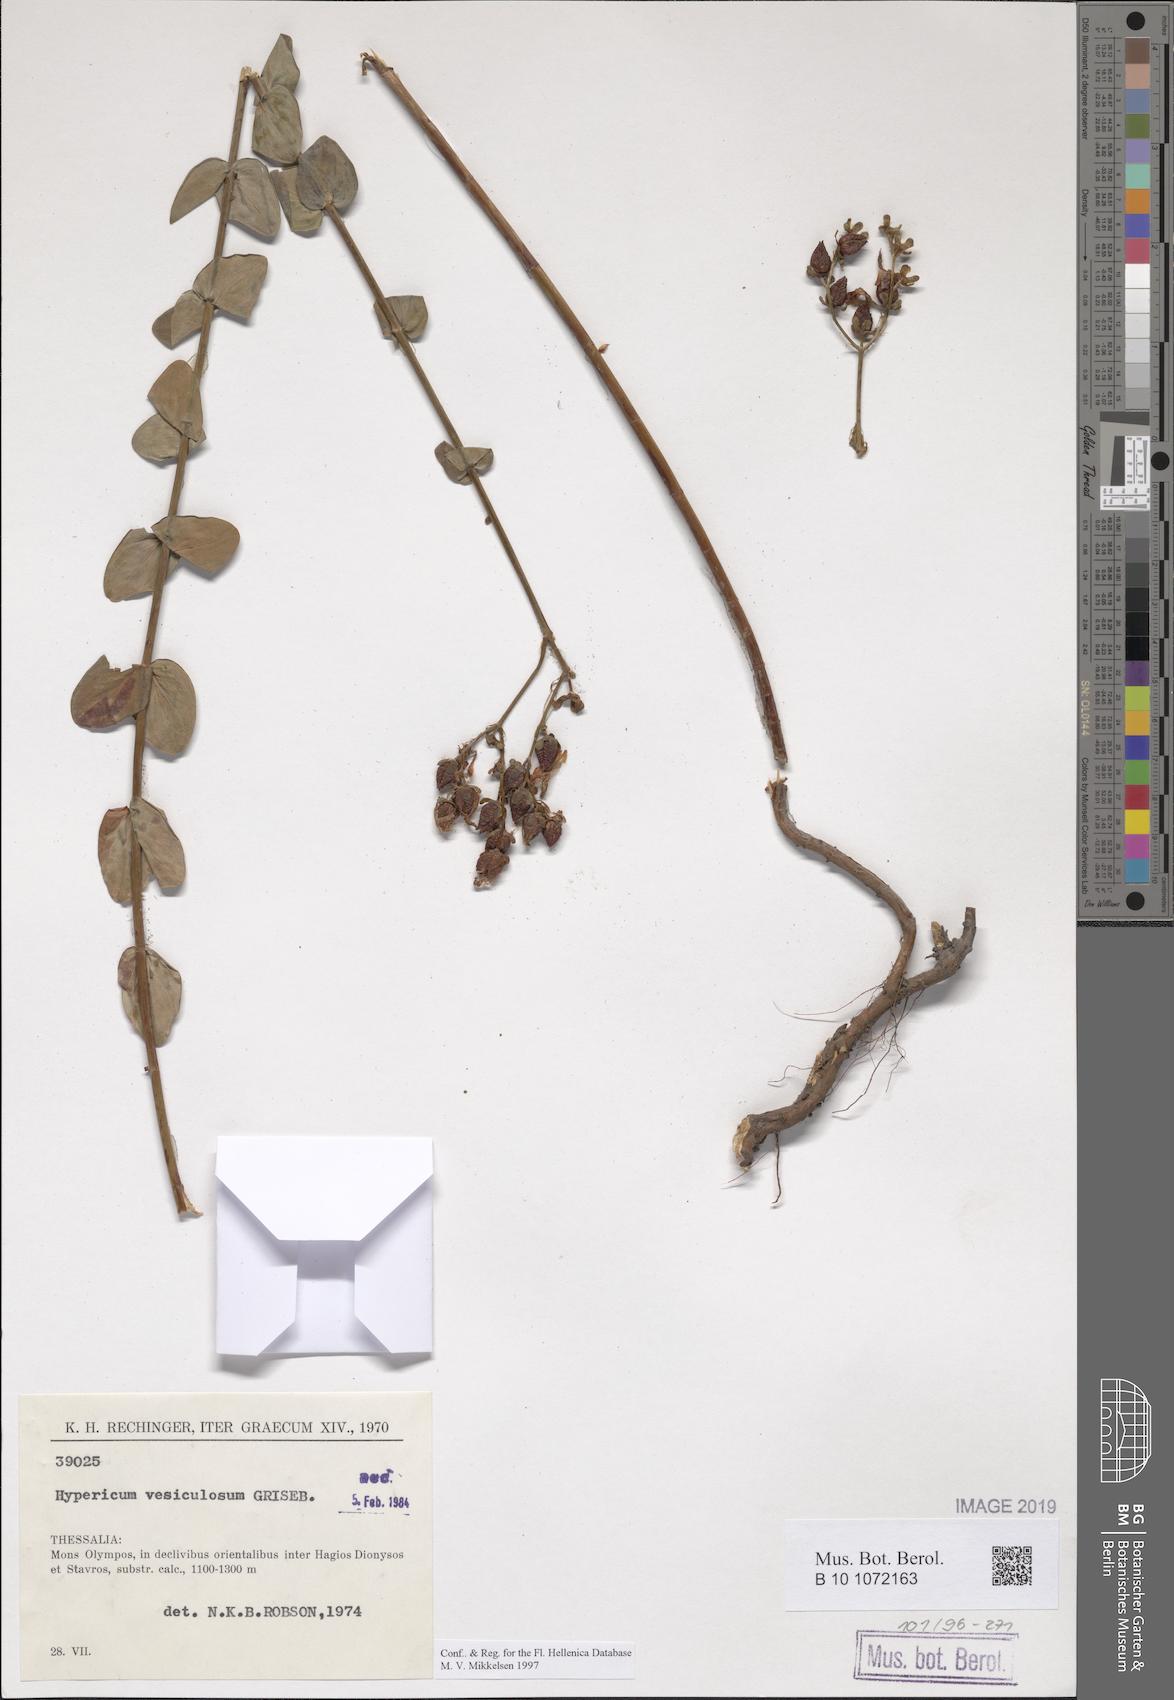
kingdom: Plantae
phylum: Tracheophyta
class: Magnoliopsida
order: Malpighiales
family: Hypericaceae
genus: Hypericum
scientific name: Hypericum vesiculosum
